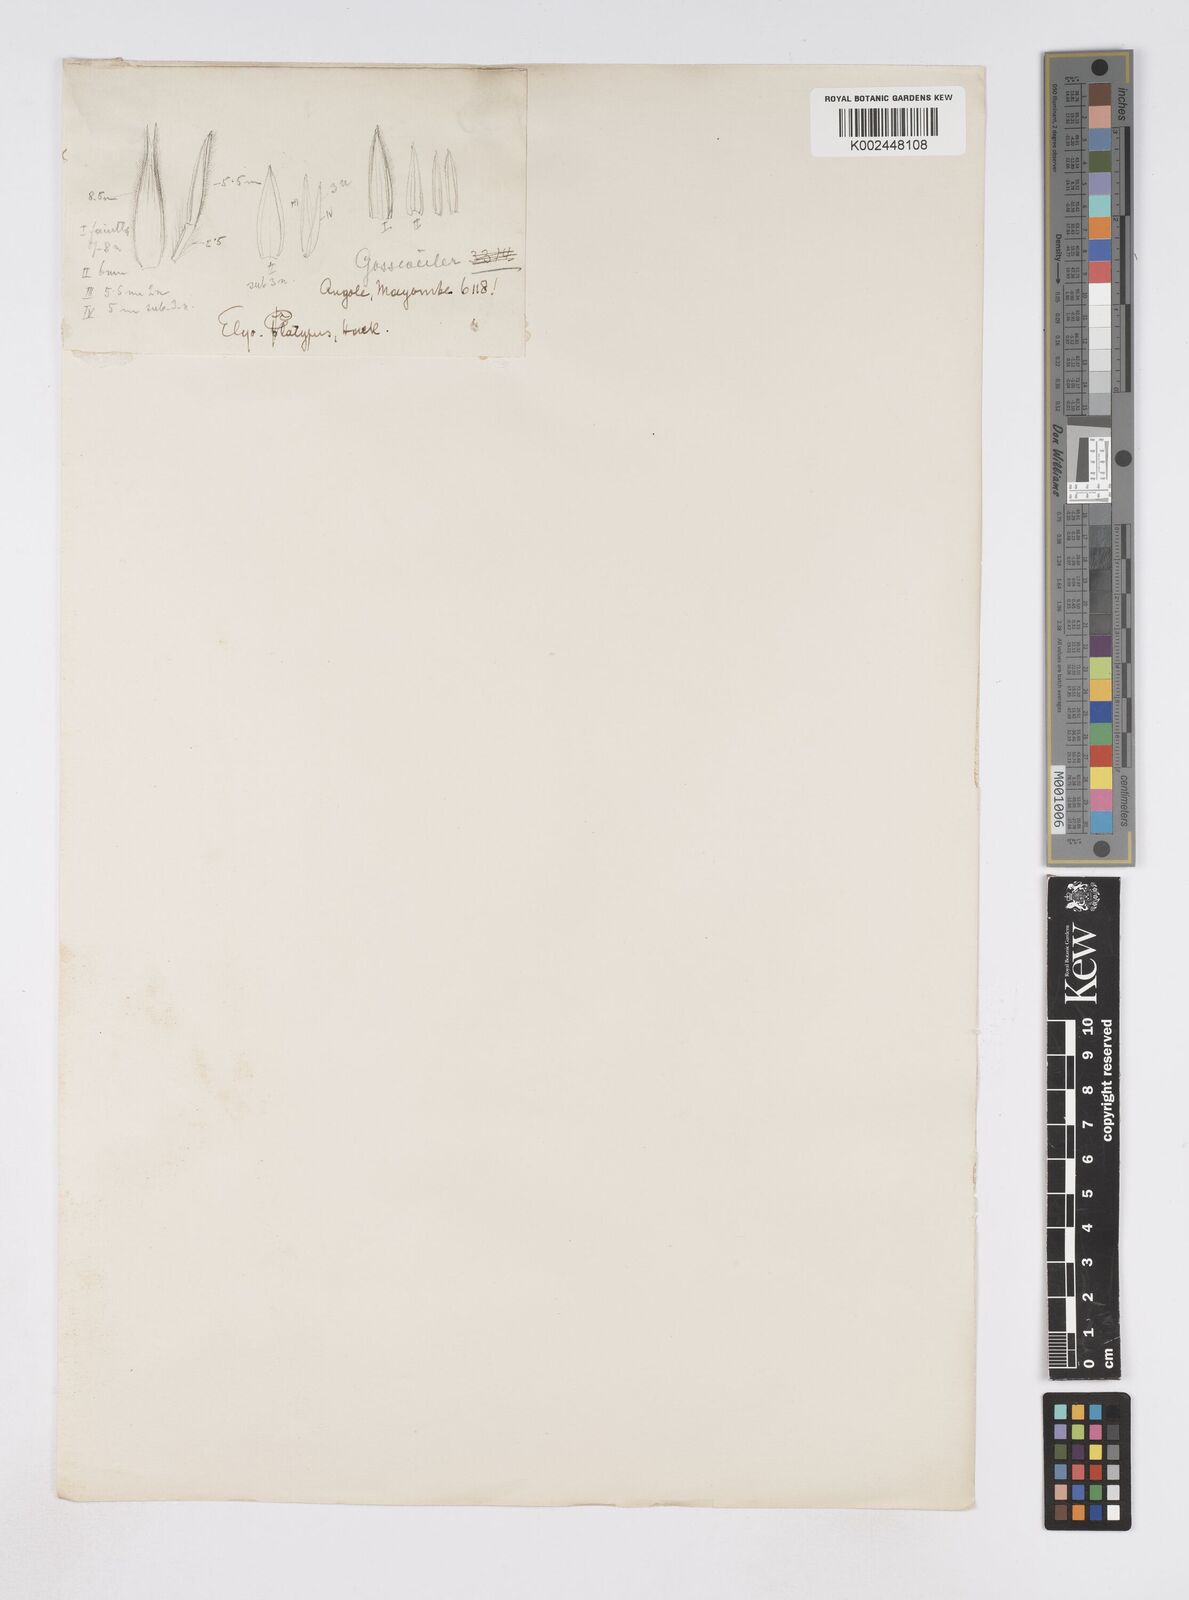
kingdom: Plantae
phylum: Tracheophyta
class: Liliopsida
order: Poales
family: Poaceae
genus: Elionurus
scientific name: Elionurus platypus
